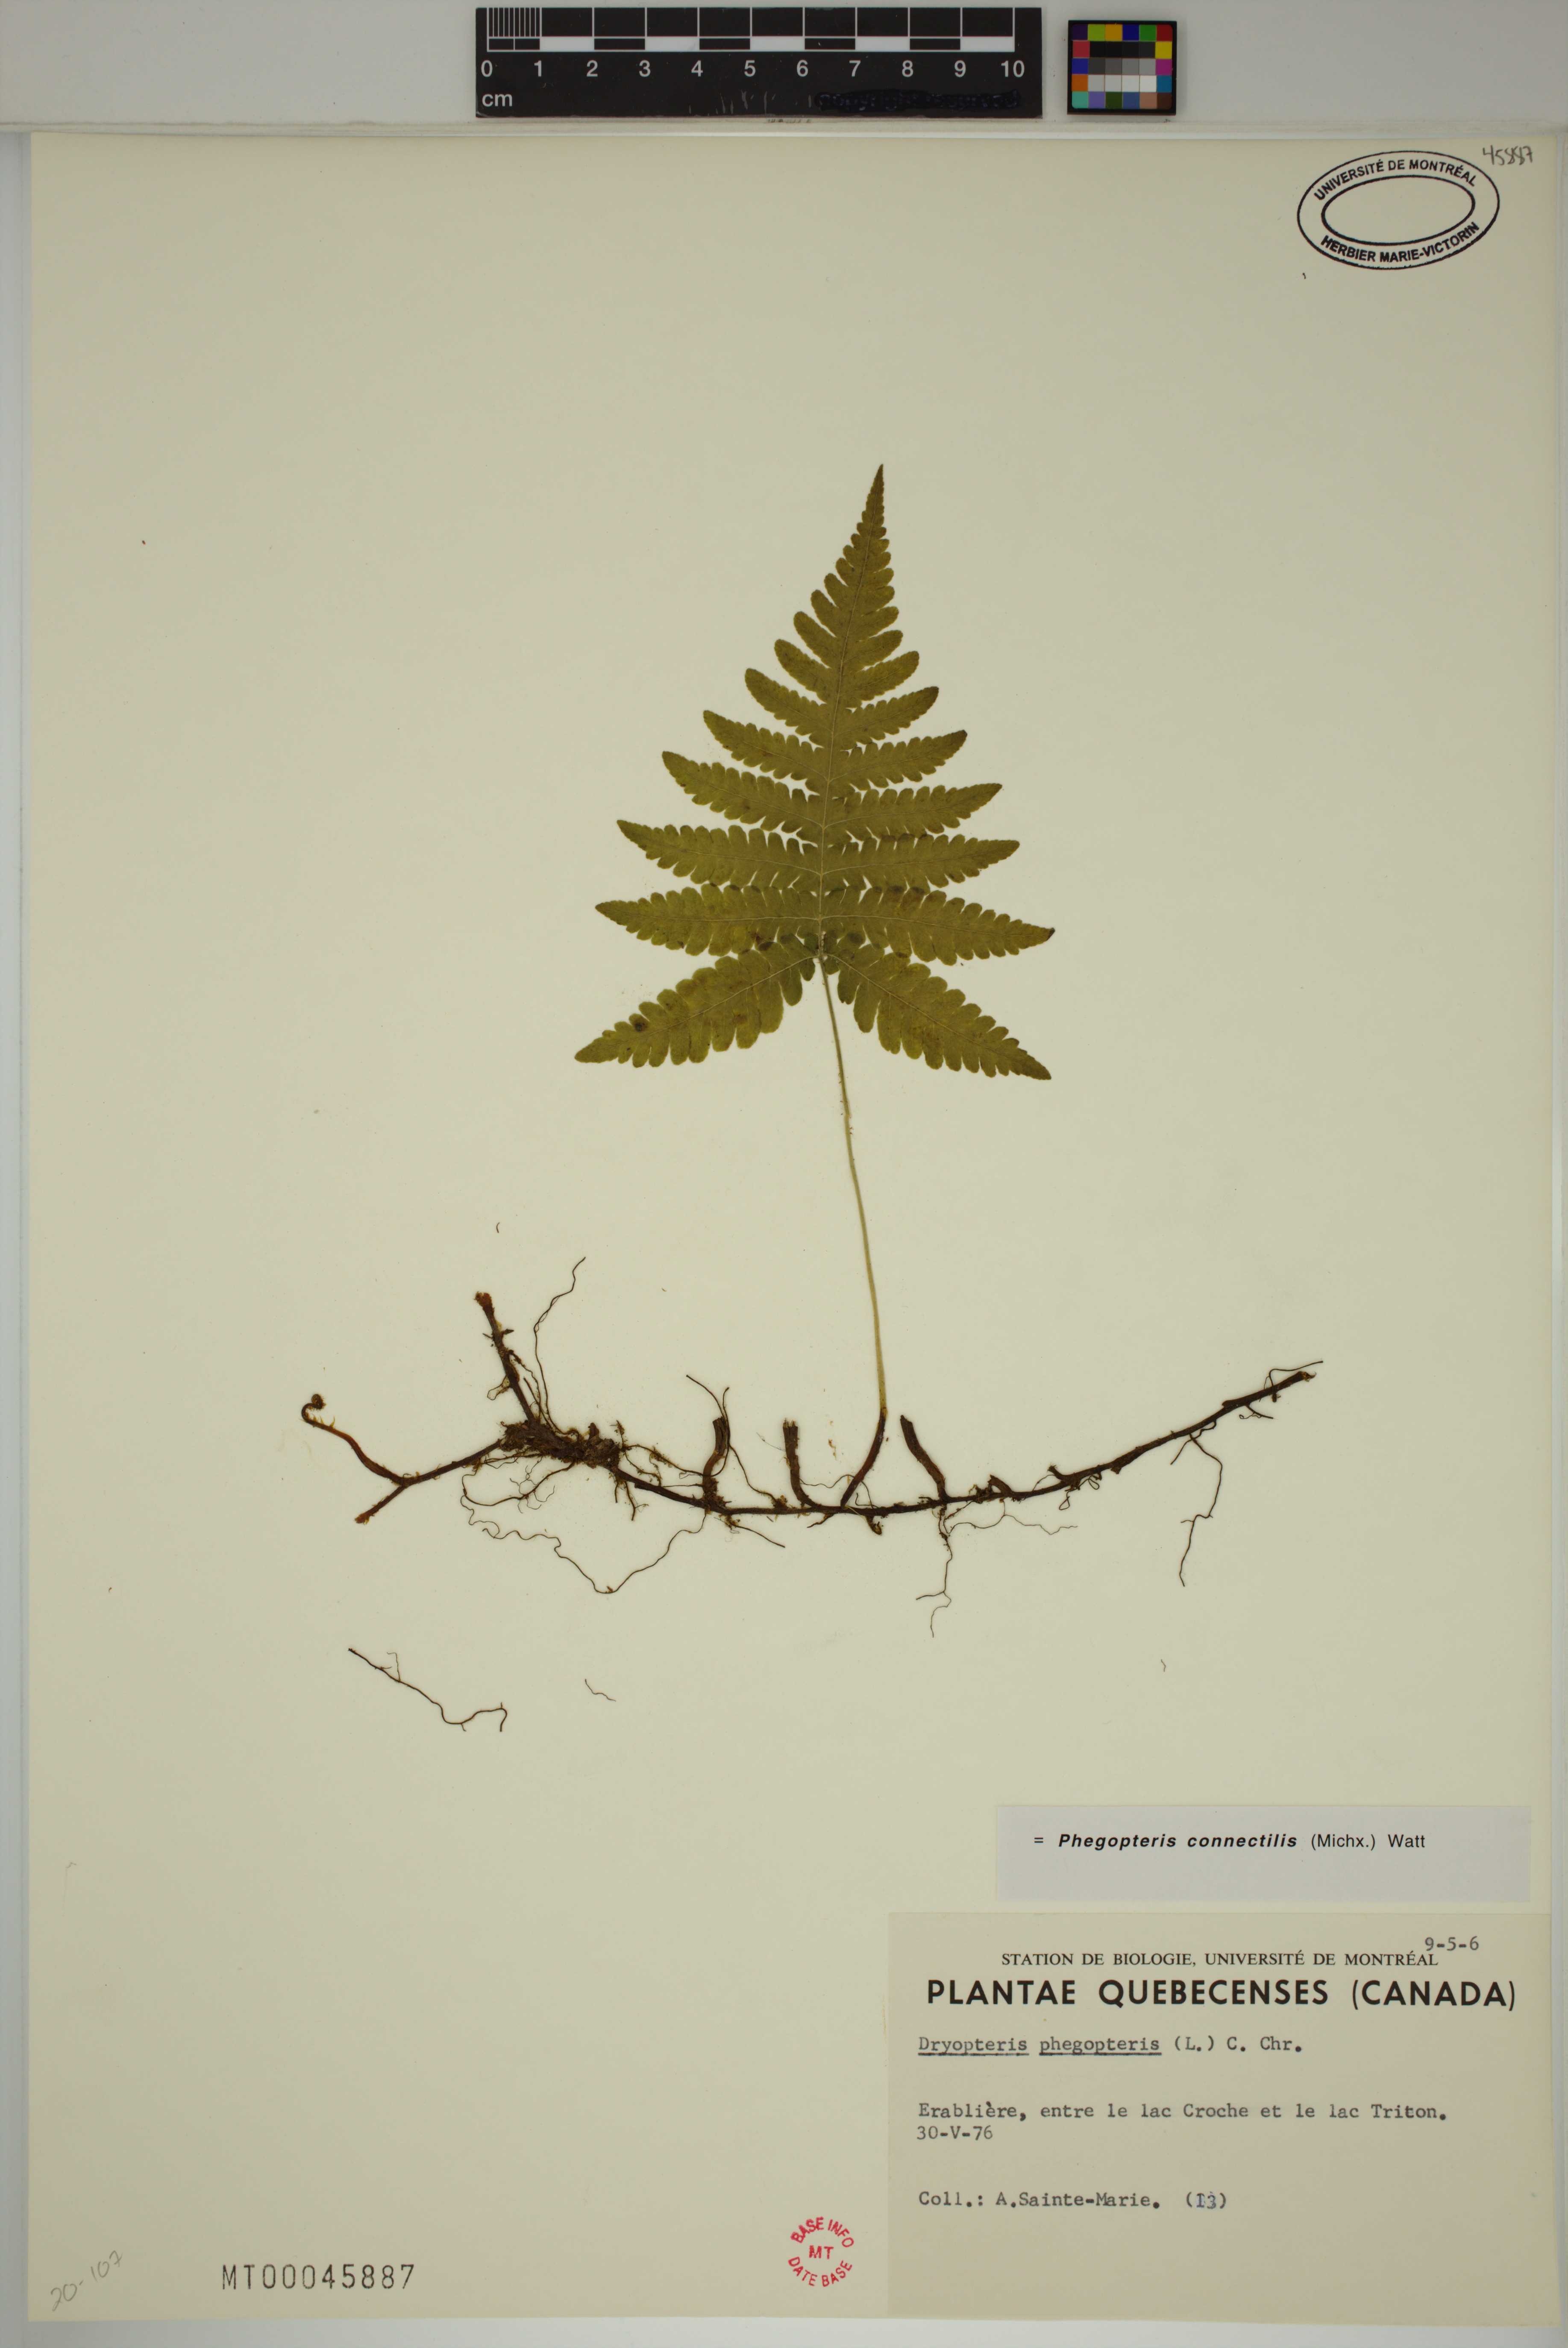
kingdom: Plantae
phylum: Tracheophyta
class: Polypodiopsida
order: Polypodiales
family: Thelypteridaceae
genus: Phegopteris
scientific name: Phegopteris connectilis
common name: Beech fern
